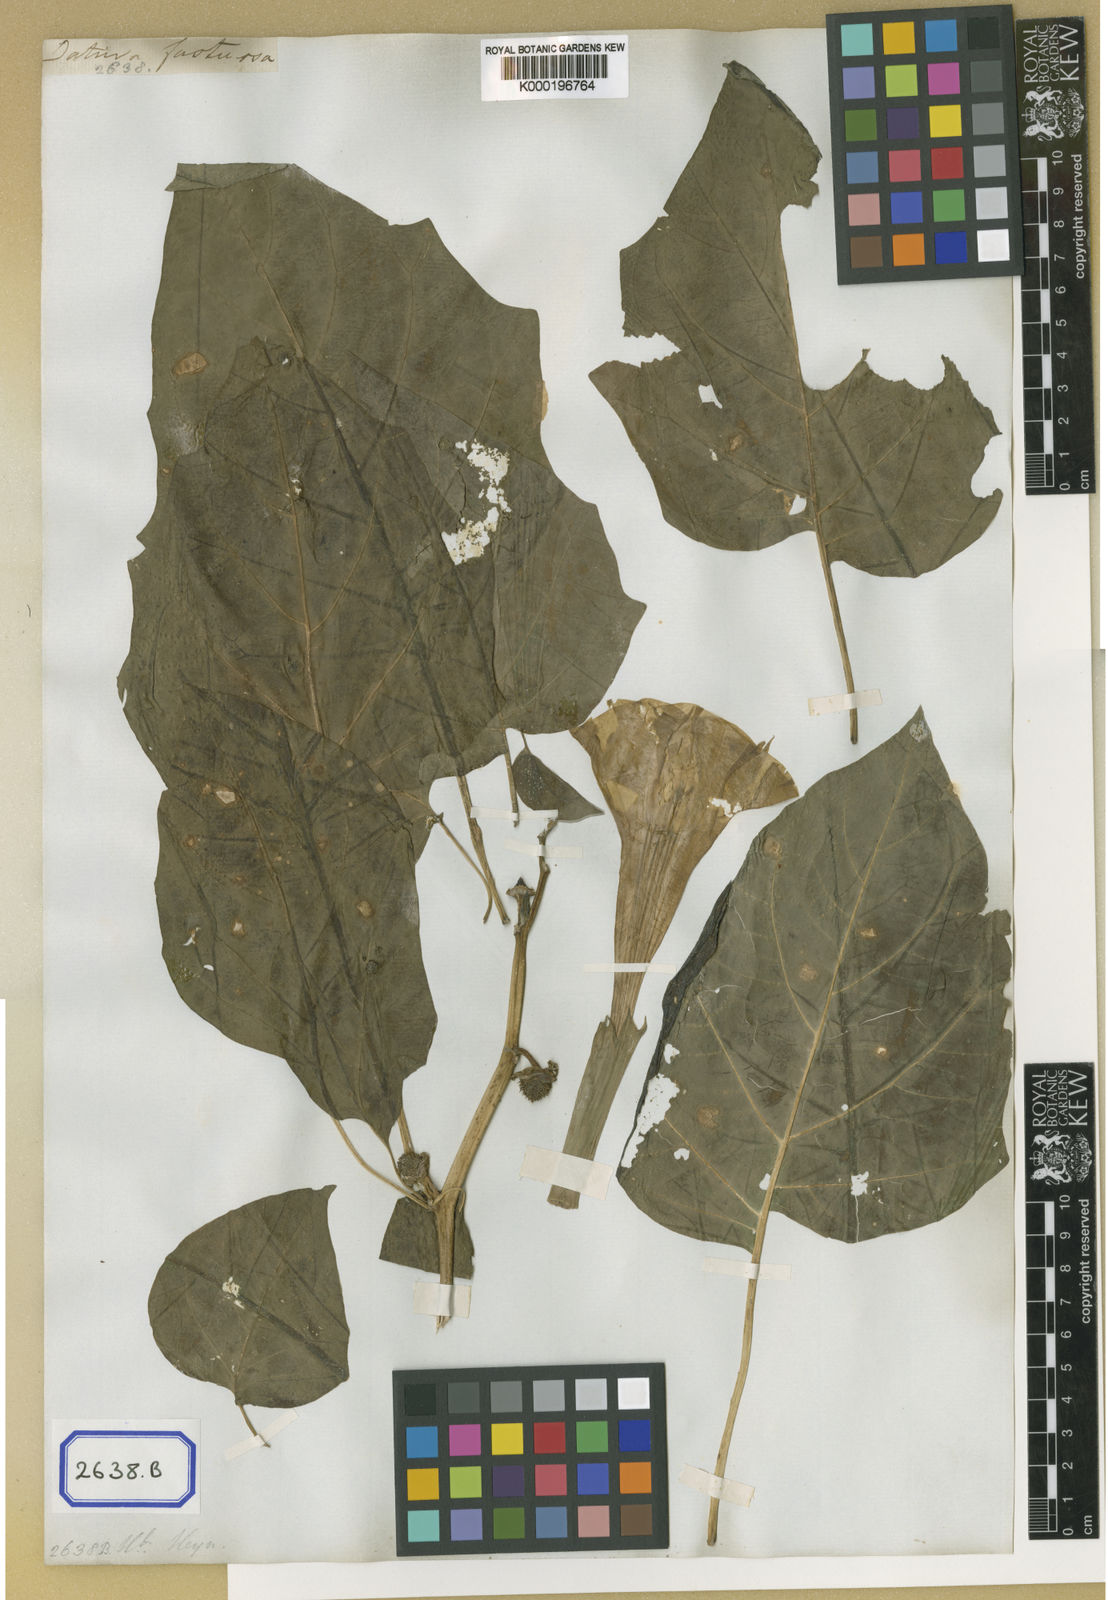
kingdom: Plantae
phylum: Tracheophyta
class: Magnoliopsida
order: Solanales
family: Solanaceae
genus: Datura
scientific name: Datura metel
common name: Jimsonweed
